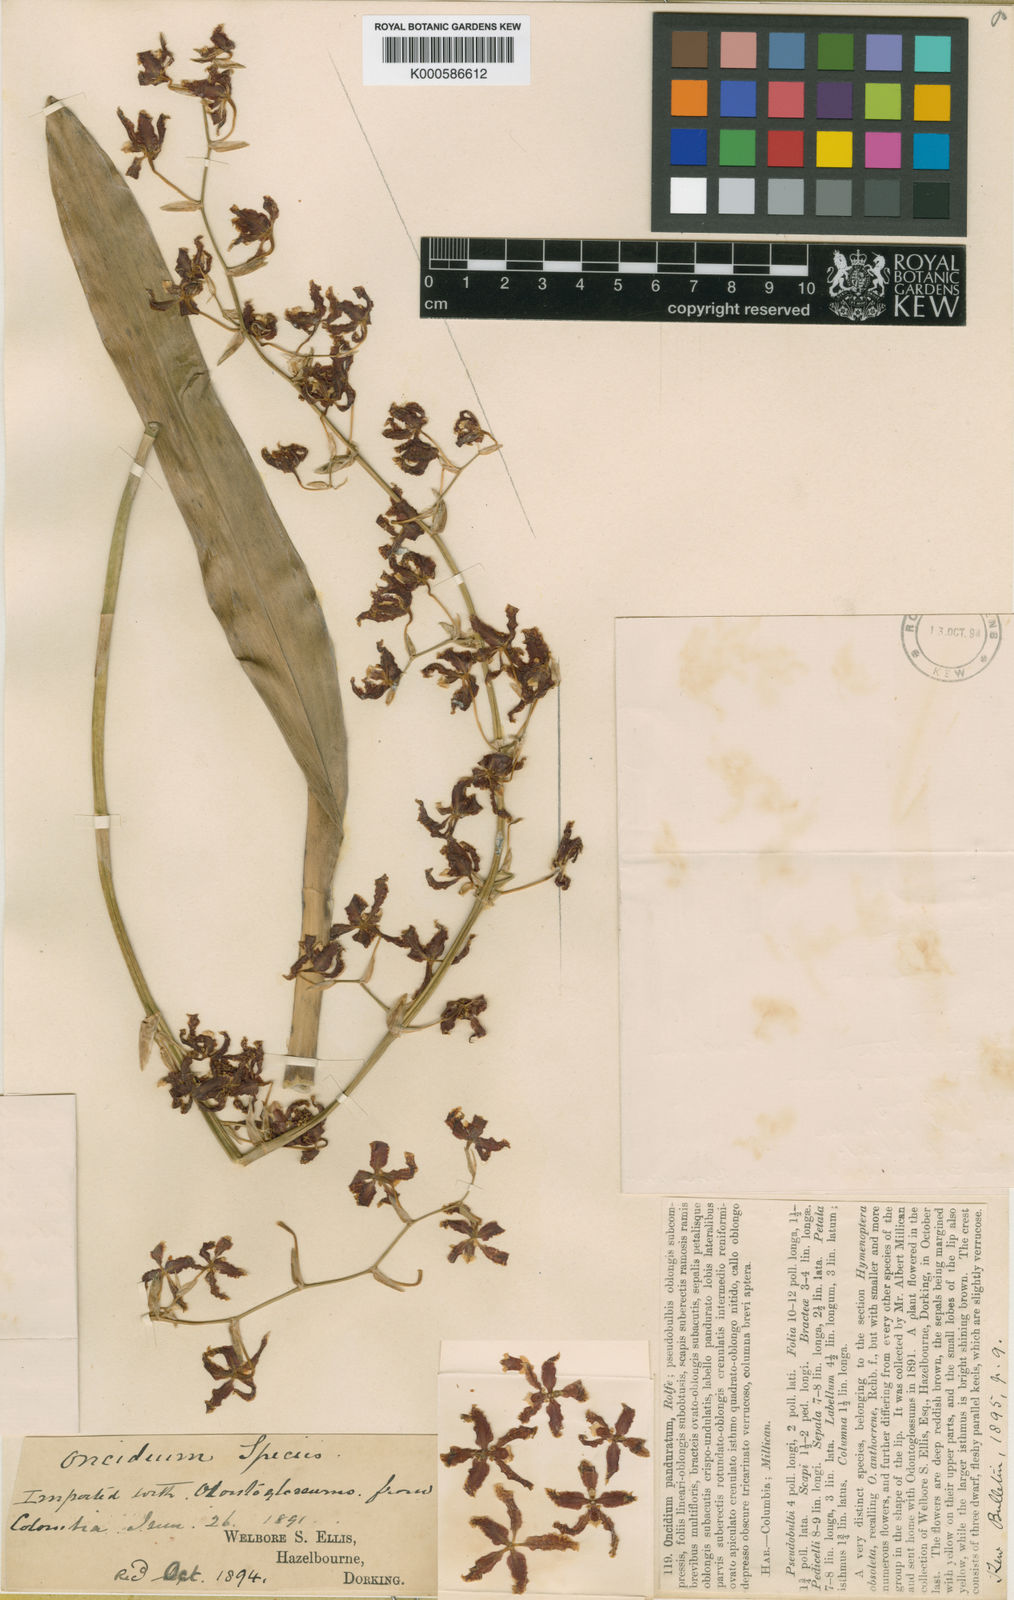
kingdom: Plantae
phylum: Tracheophyta
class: Liliopsida
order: Asparagales
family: Orchidaceae
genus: Oncidium
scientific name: Oncidium panduratum
